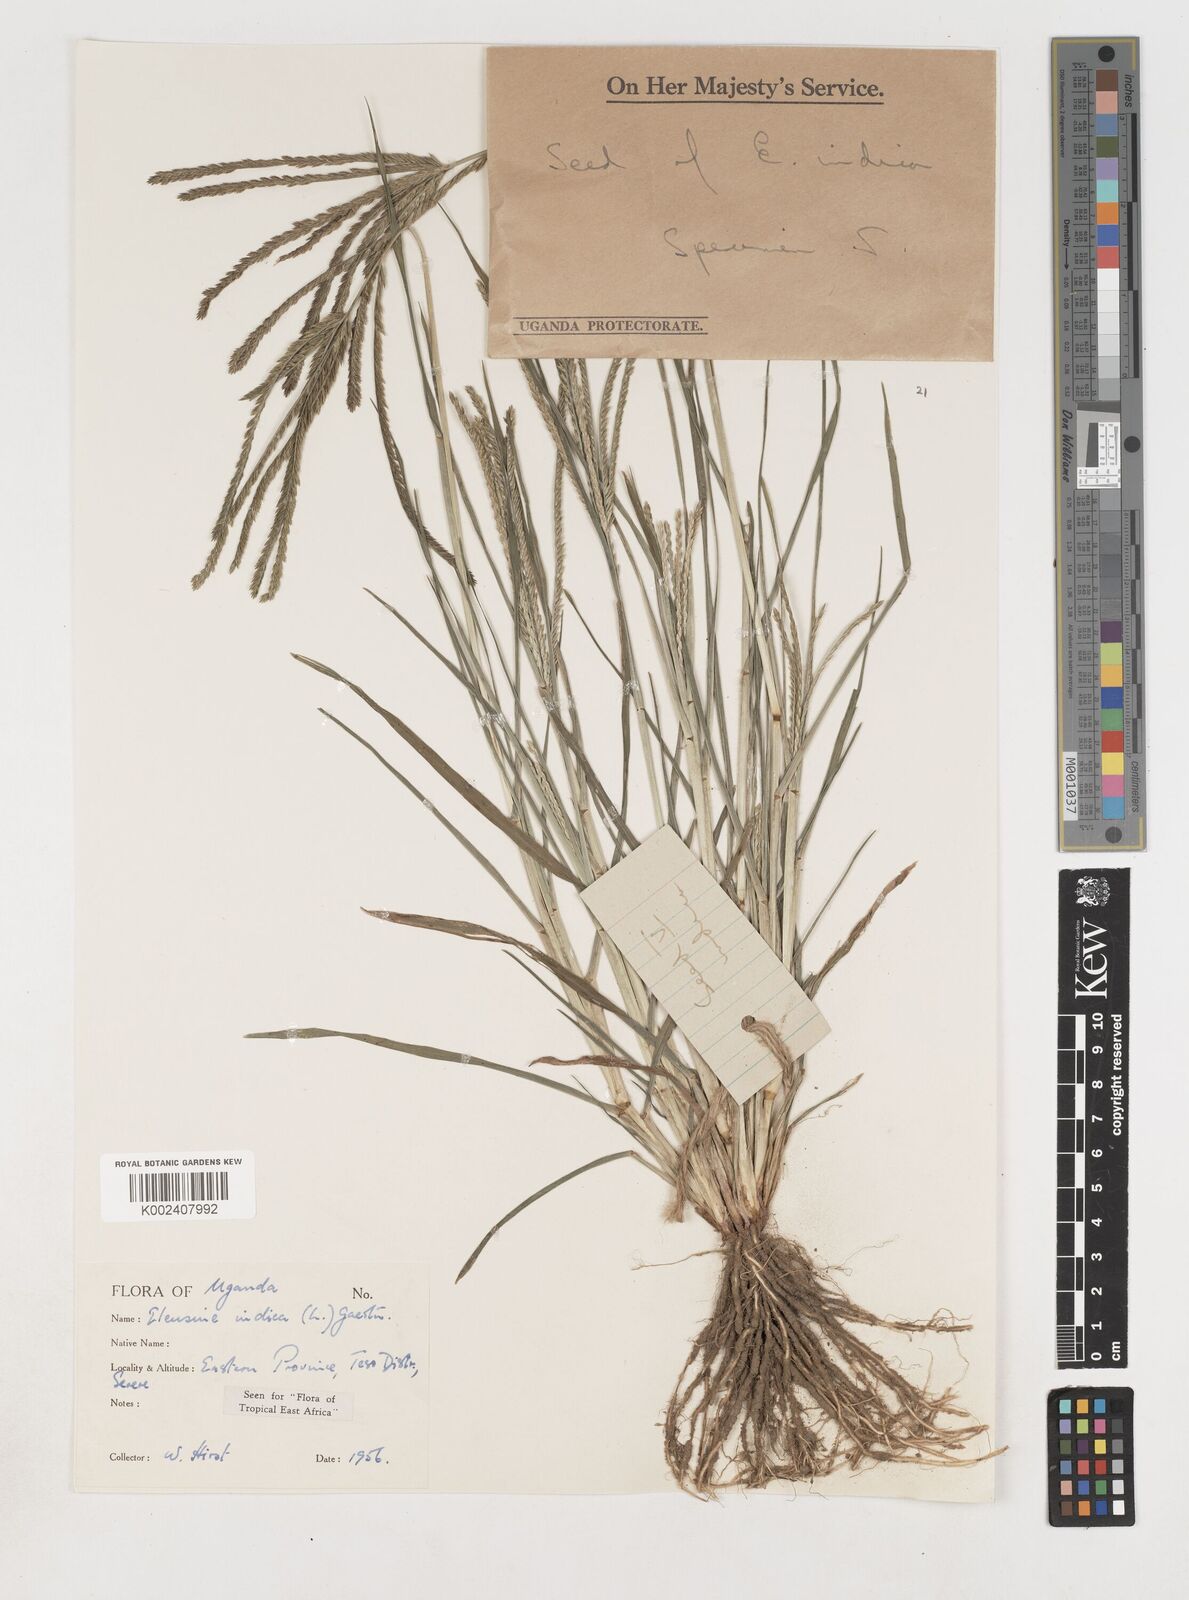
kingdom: Plantae
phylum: Tracheophyta
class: Liliopsida
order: Poales
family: Poaceae
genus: Eleusine
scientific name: Eleusine indica
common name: Yard-grass
